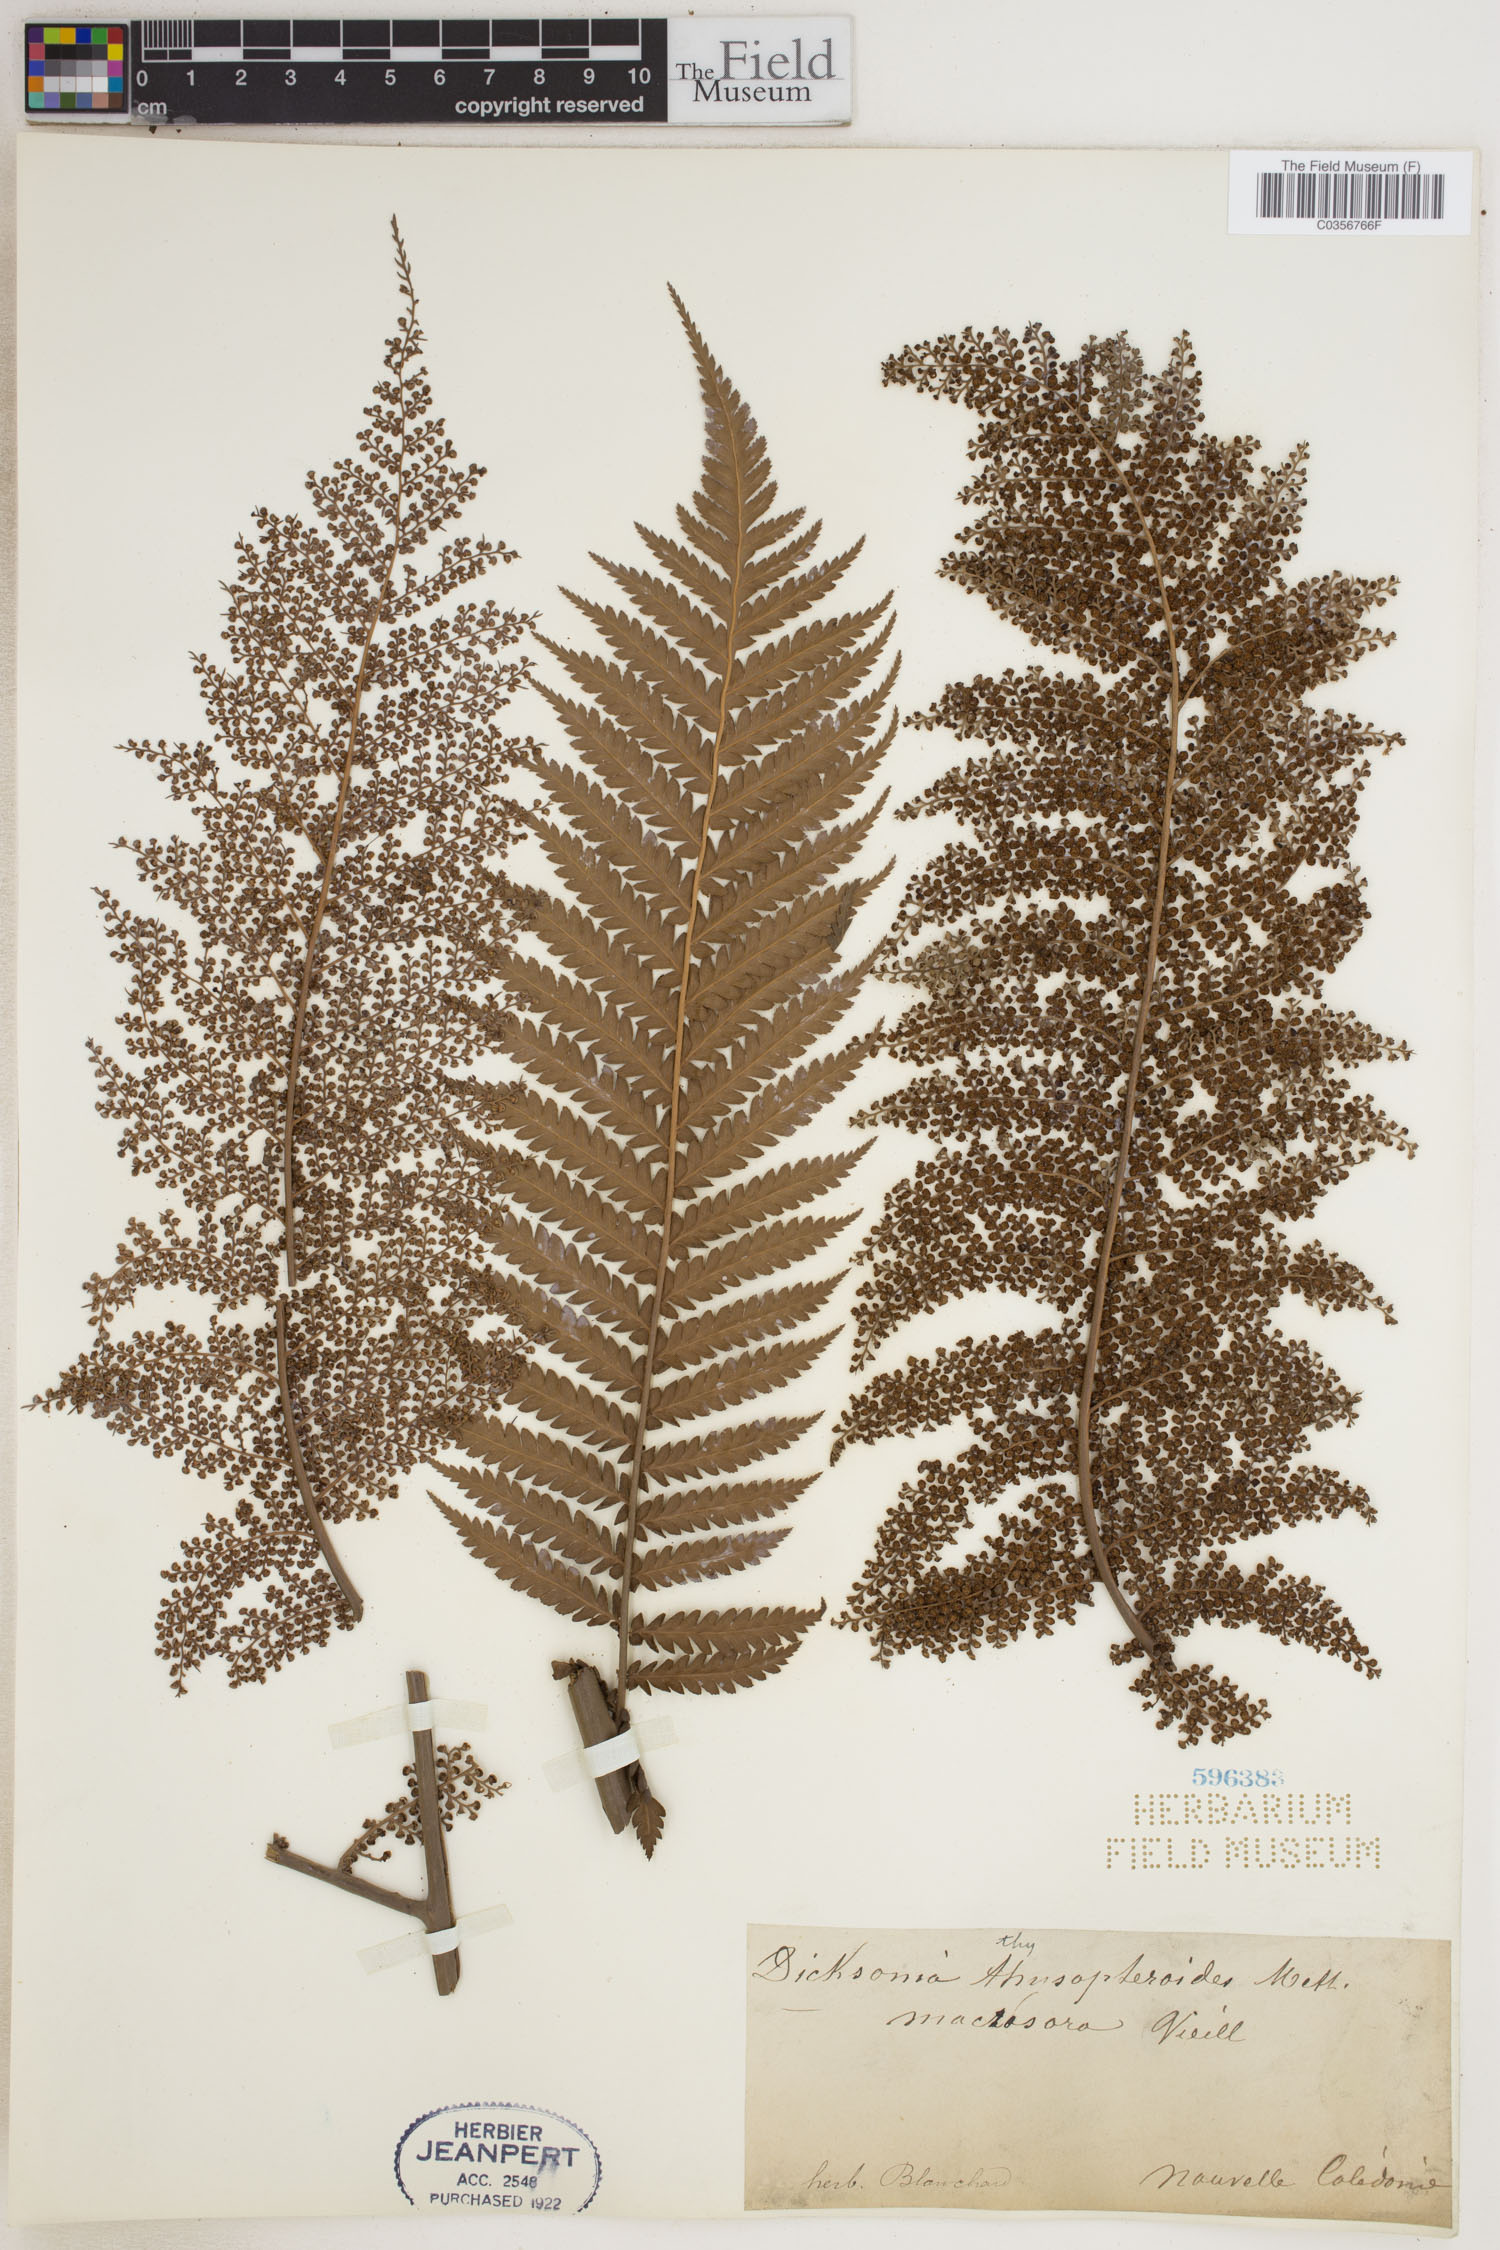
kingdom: Plantae
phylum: Tracheophyta
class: Polypodiopsida
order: Cyatheales
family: Dicksoniaceae
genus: Dicksonia
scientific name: Dicksonia thyrsopteroides
